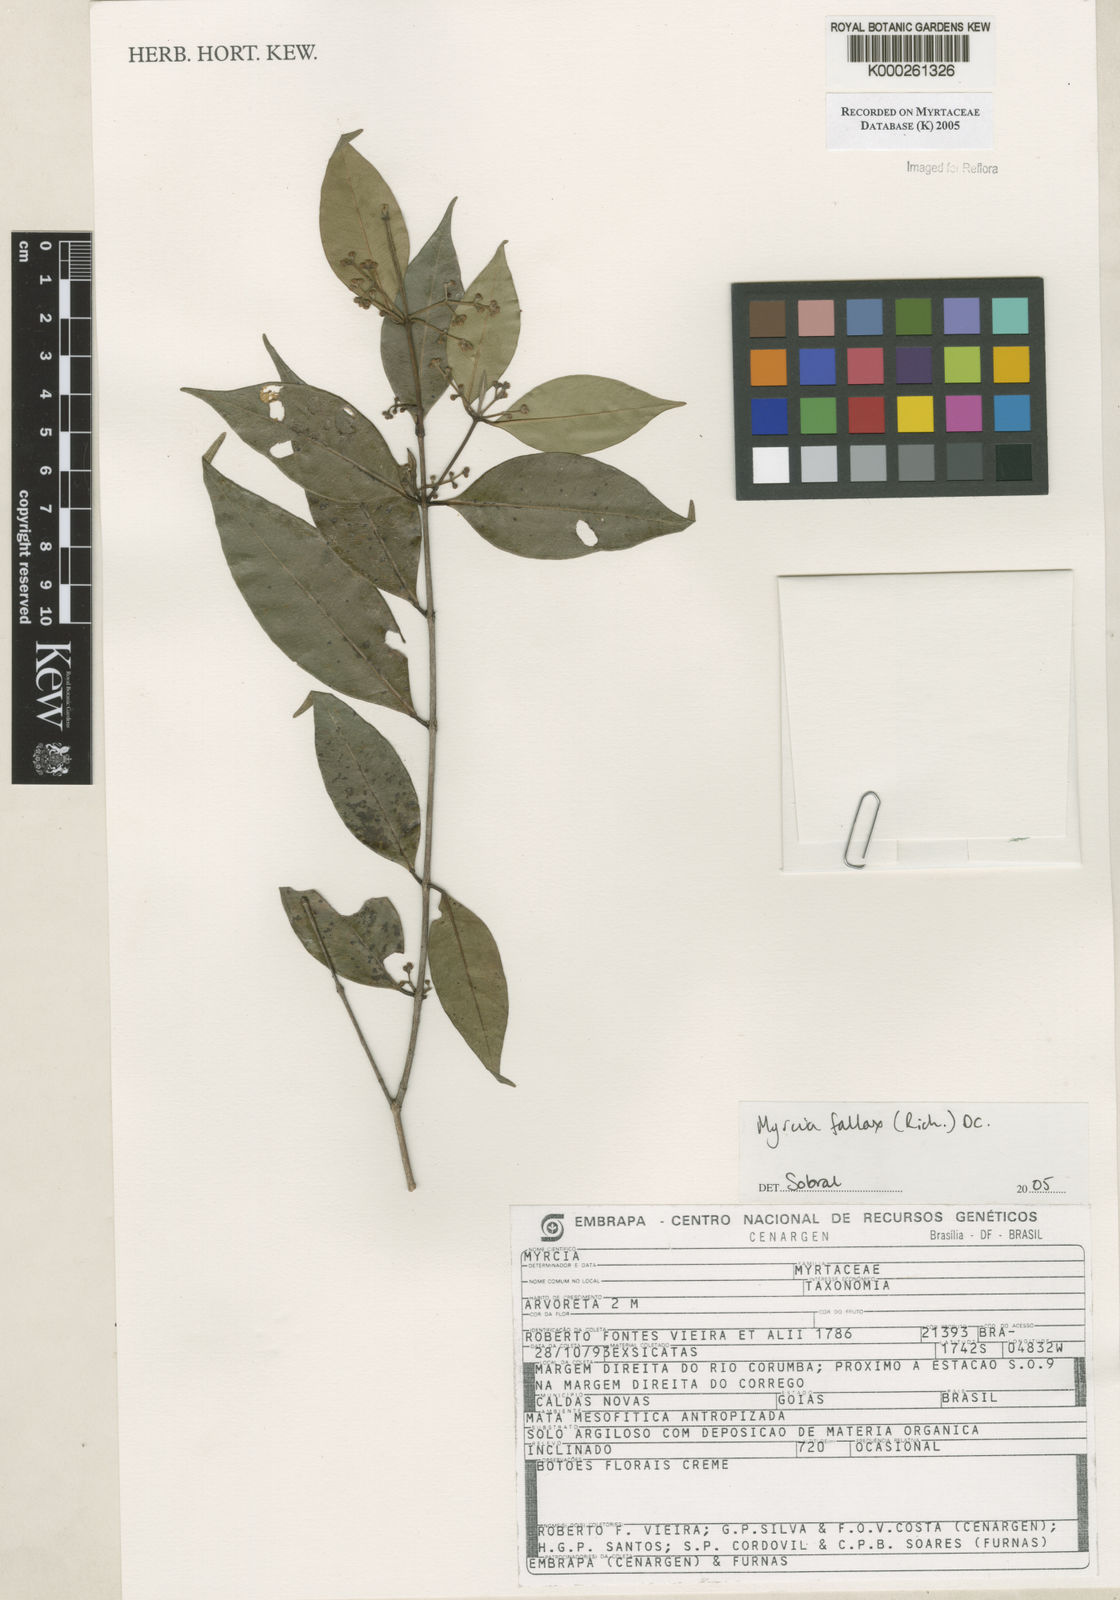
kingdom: Plantae
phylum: Tracheophyta
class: Magnoliopsida
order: Myrtales
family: Myrtaceae
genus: Myrcia
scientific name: Myrcia splendens
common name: Surinam cherry
